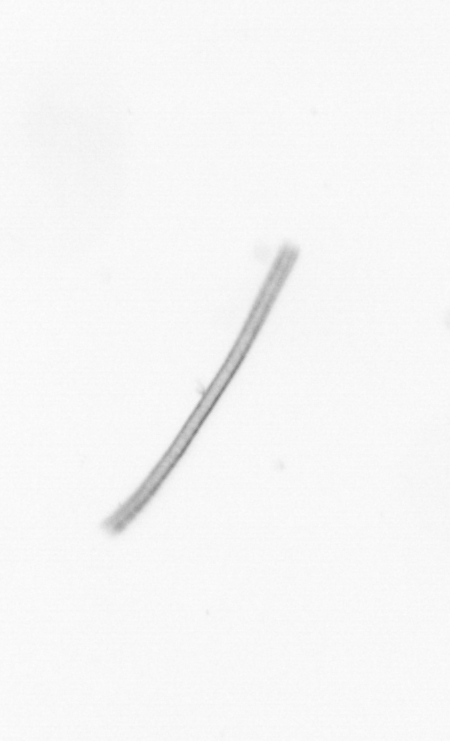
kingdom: Chromista
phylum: Ochrophyta
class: Bacillariophyceae
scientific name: Bacillariophyceae
